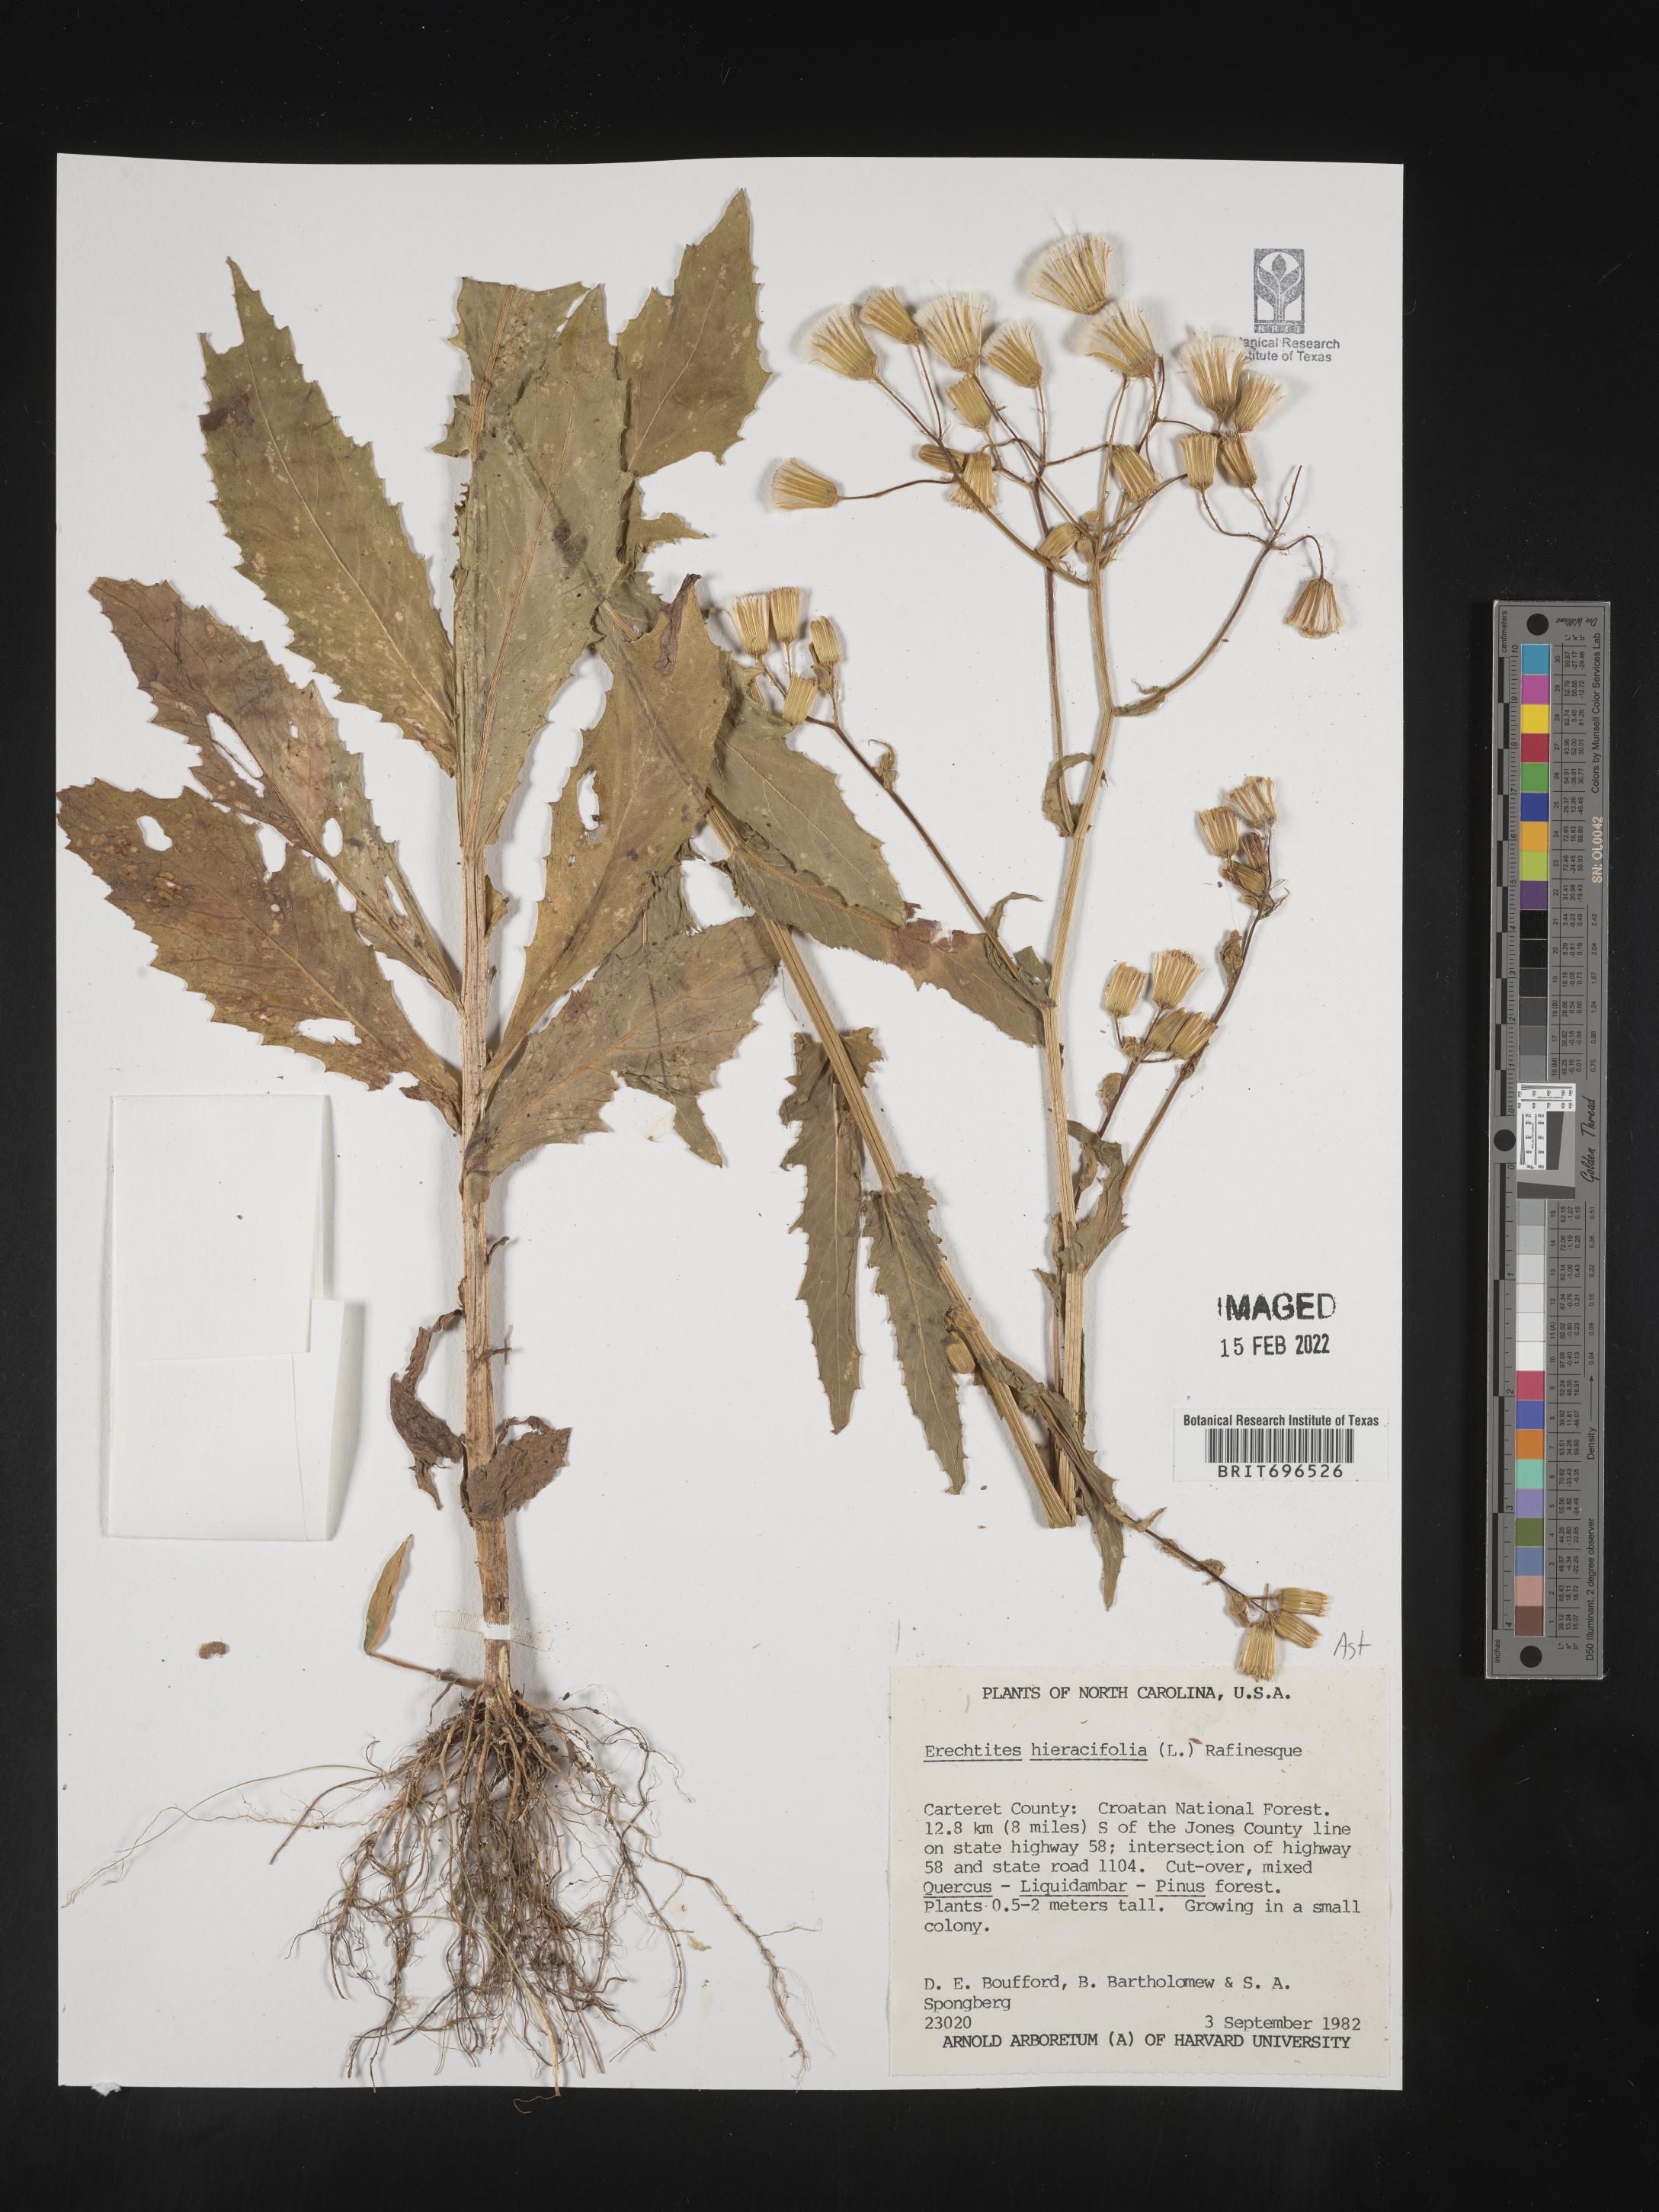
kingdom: Plantae
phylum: Tracheophyta
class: Magnoliopsida
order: Asterales
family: Asteraceae
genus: Erechtites
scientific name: Erechtites hieraciifolius
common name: American burnweed
